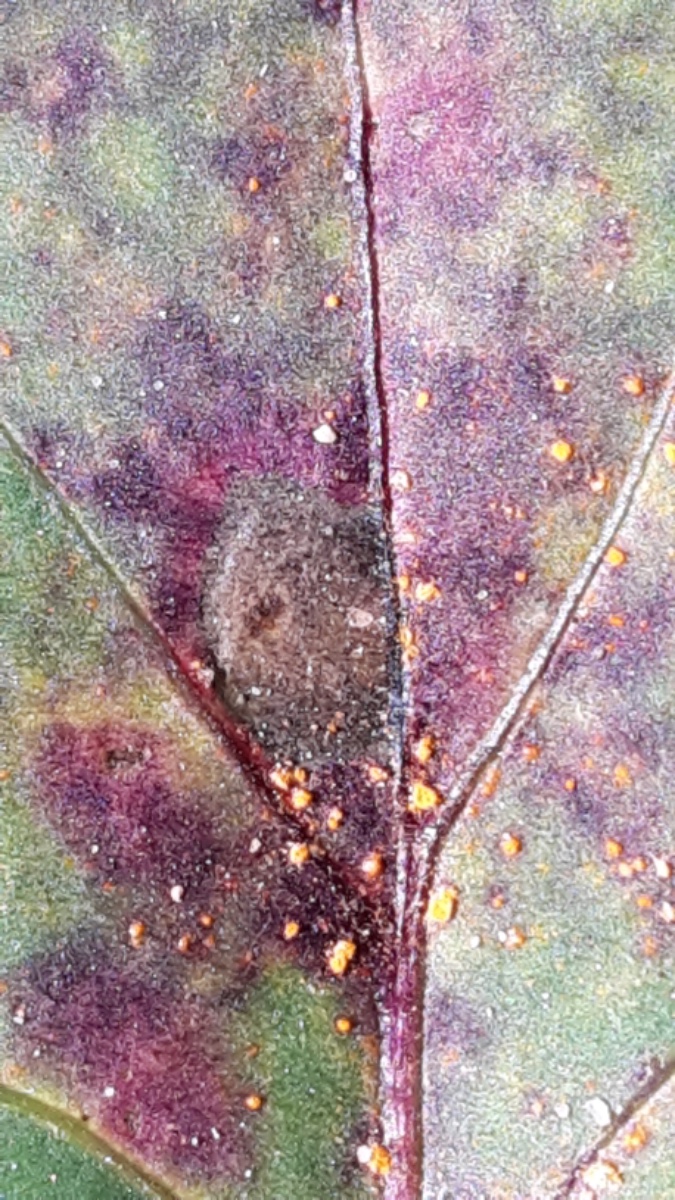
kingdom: Fungi
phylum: Basidiomycota
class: Pucciniomycetes
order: Pucciniales
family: Coleosporiaceae
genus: Coleosporium
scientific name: Coleosporium tussilaginis
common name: almindelig fyrrenålerust
